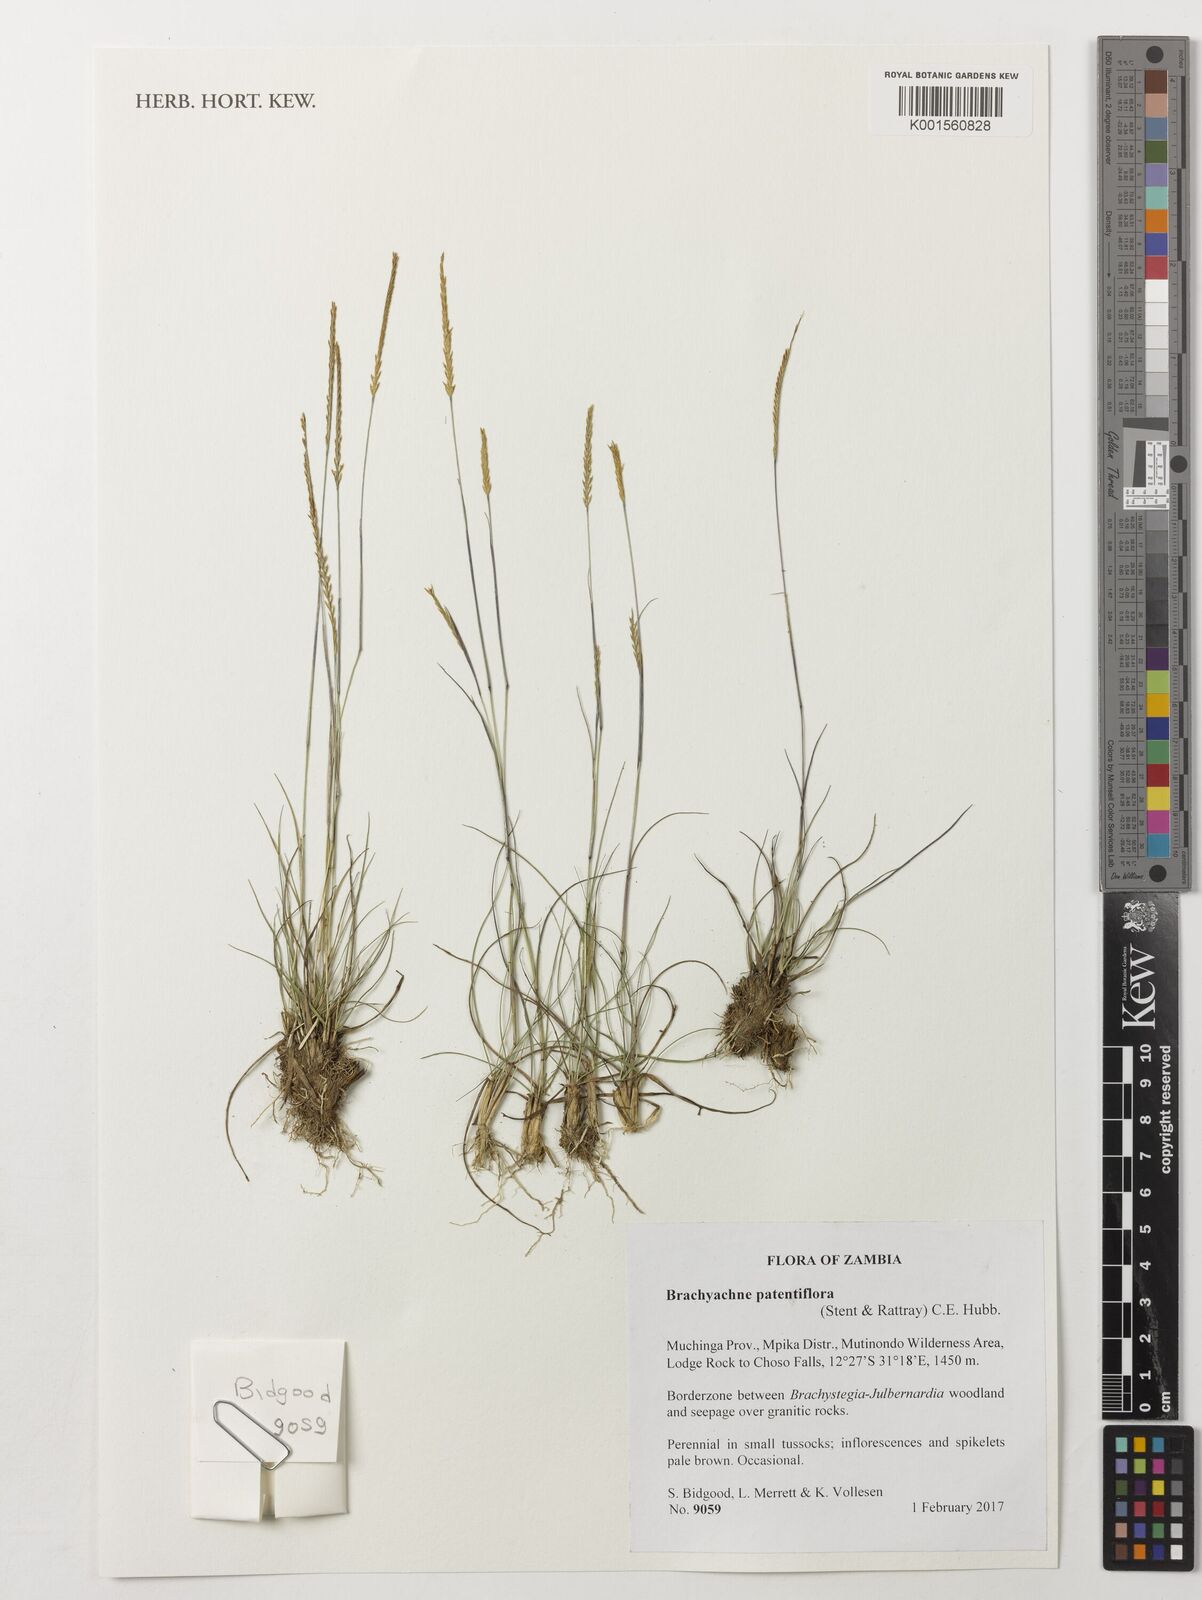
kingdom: Plantae
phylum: Tracheophyta
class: Liliopsida
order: Poales
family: Poaceae
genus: Micrachne
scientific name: Micrachne patentiflora
